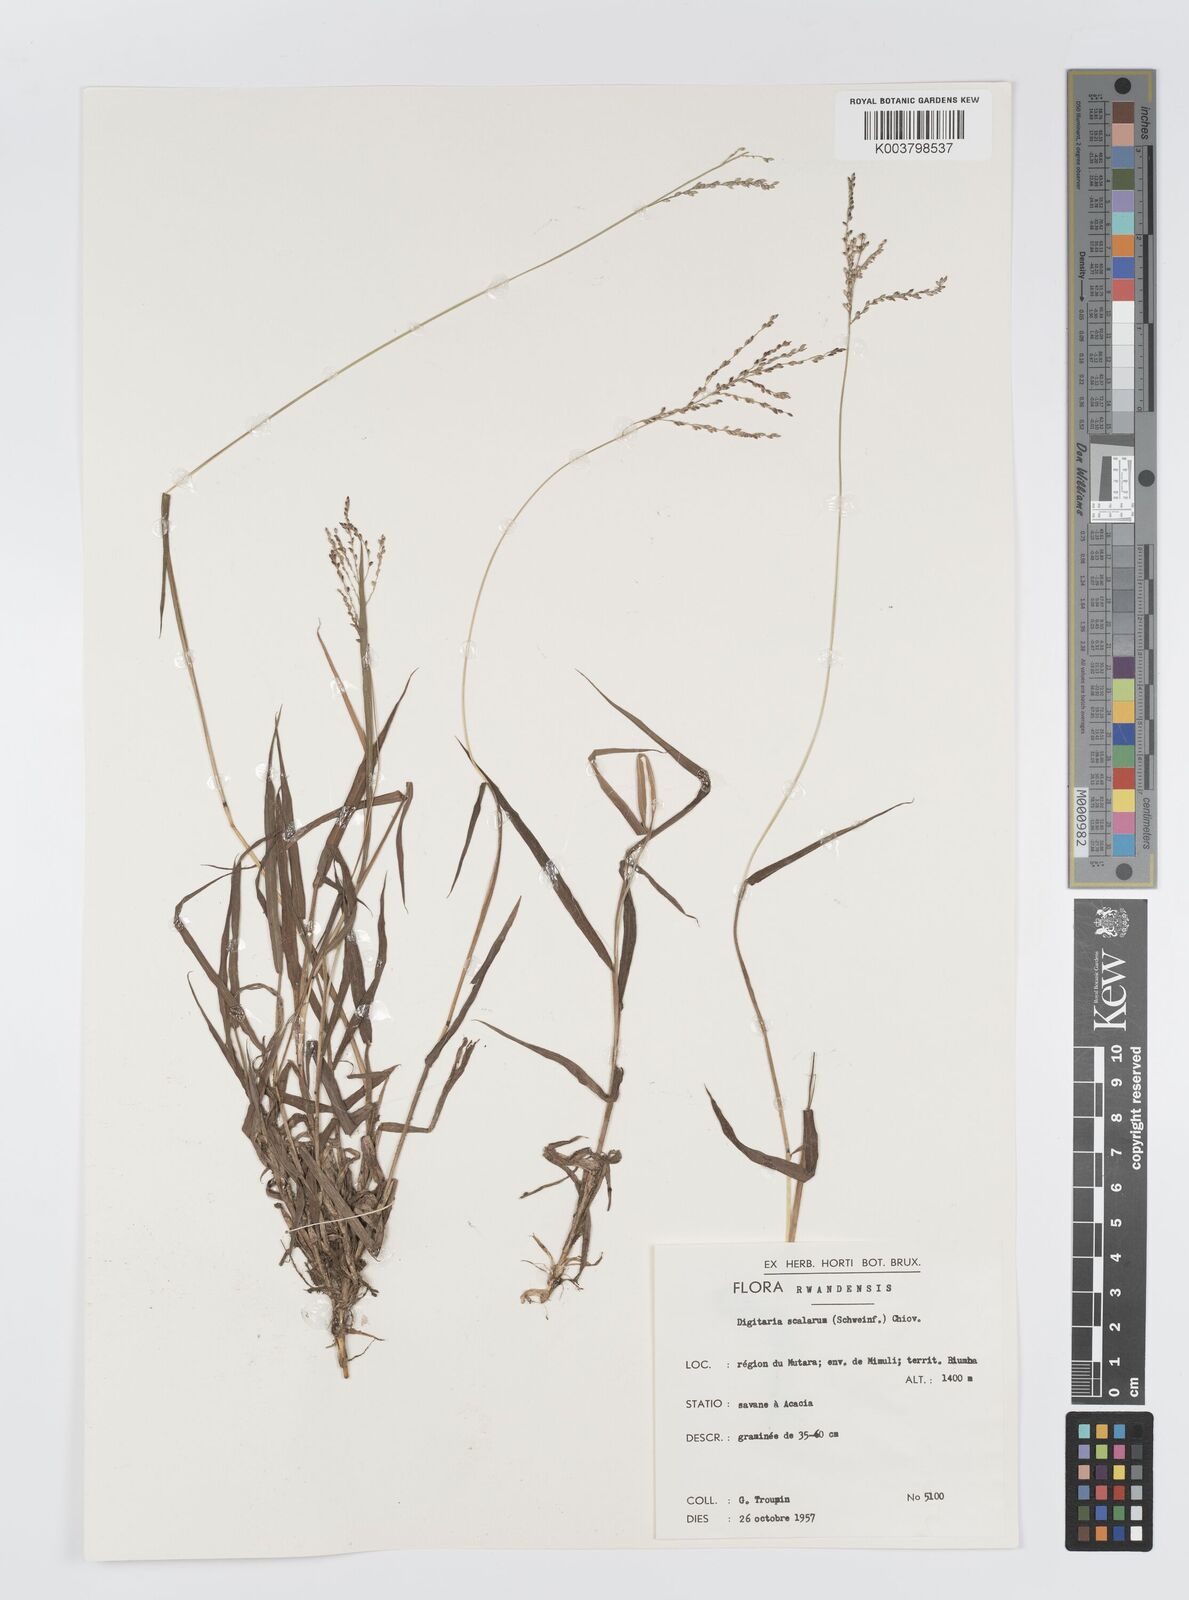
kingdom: Plantae
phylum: Tracheophyta
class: Liliopsida
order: Poales
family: Poaceae
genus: Digitaria
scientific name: Digitaria abyssinica
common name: African couchgrass
